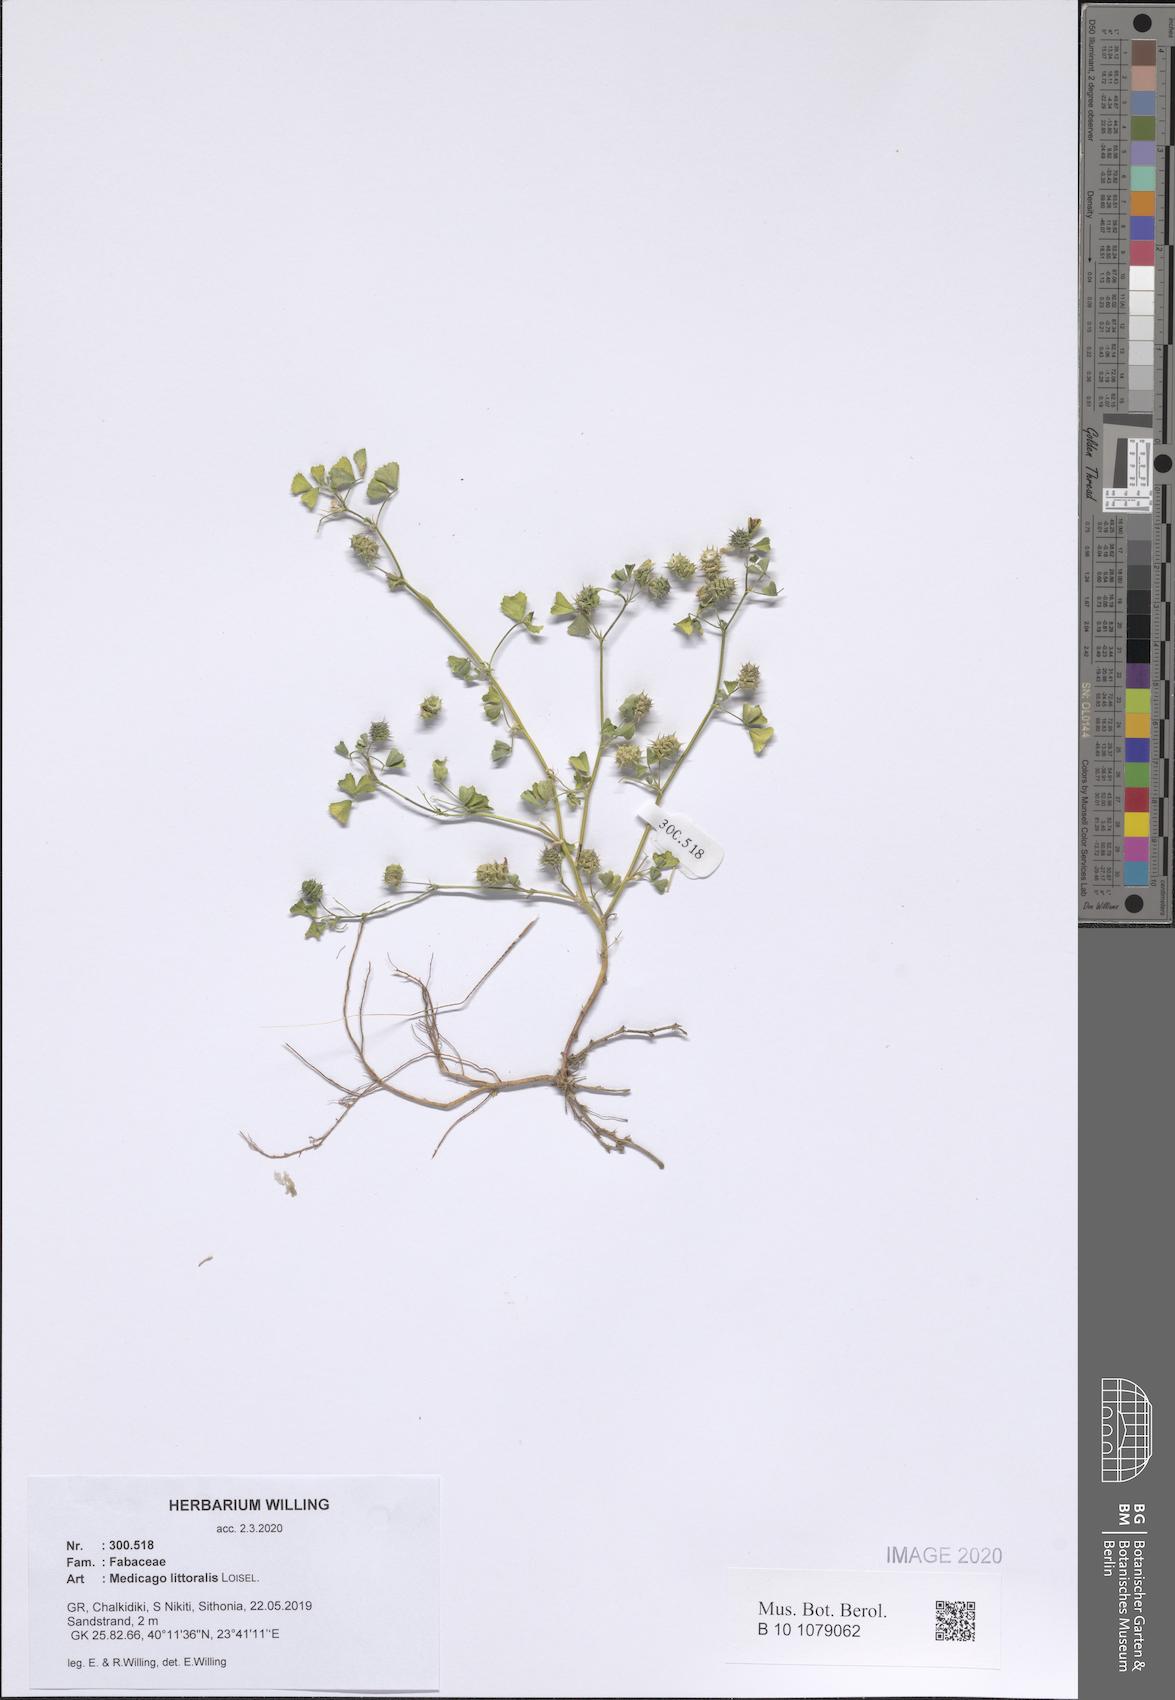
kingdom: Plantae
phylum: Tracheophyta
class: Magnoliopsida
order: Fabales
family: Fabaceae
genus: Medicago
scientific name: Medicago littoralis
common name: Shore medick
